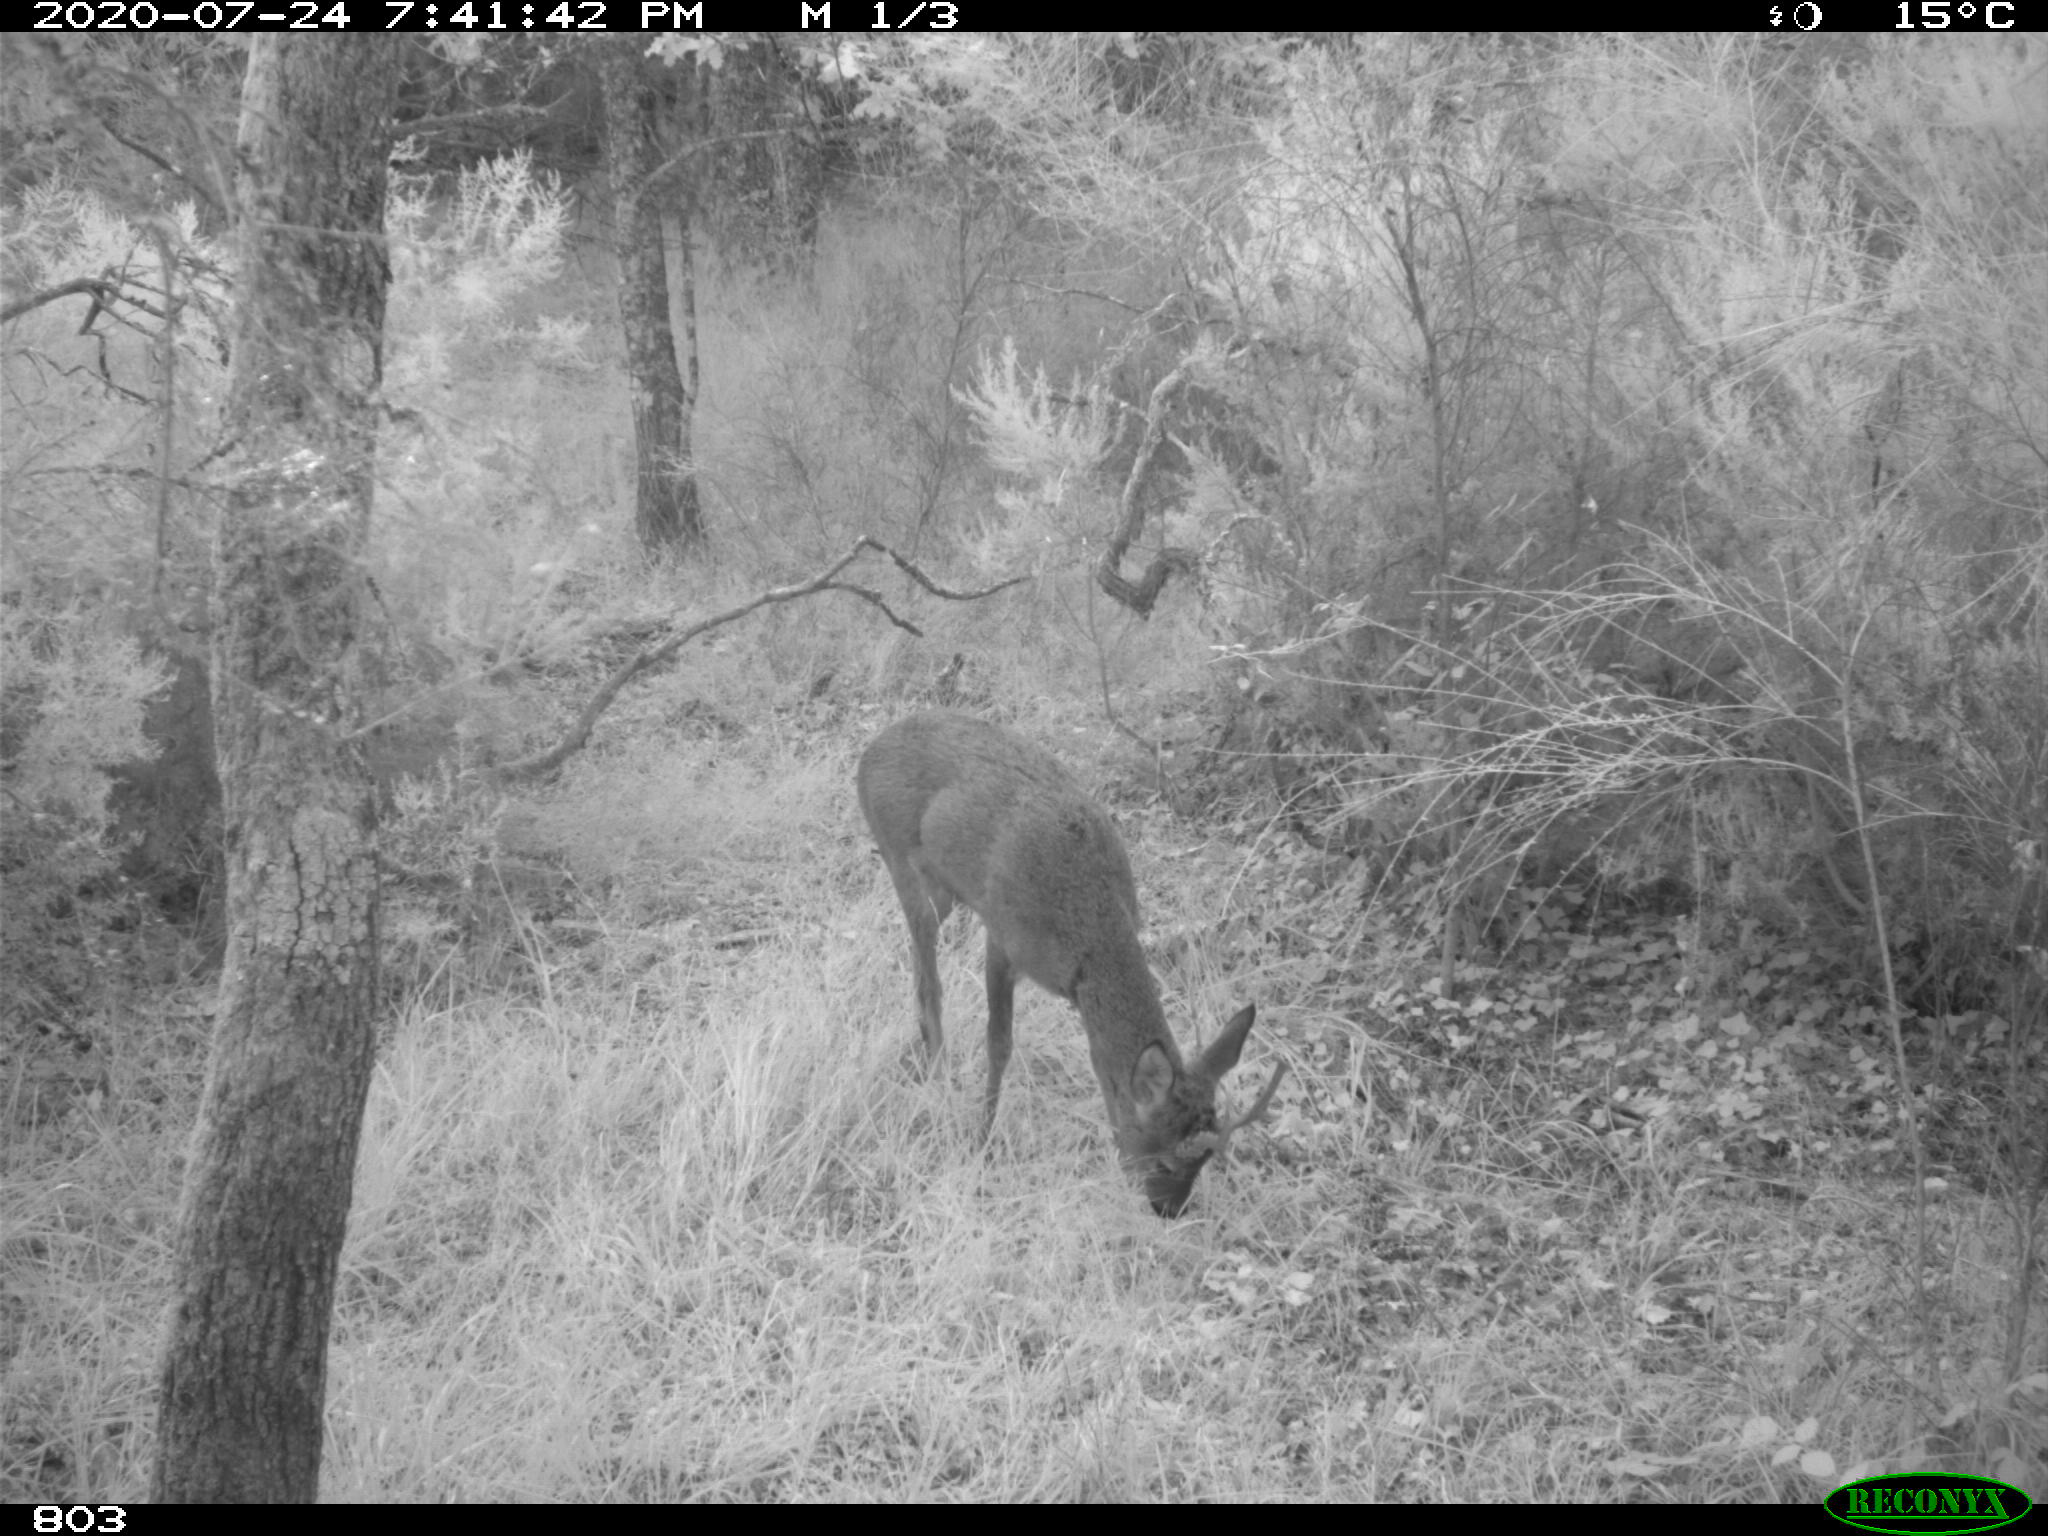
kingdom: Animalia
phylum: Chordata
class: Mammalia
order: Artiodactyla
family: Cervidae
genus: Capreolus
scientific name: Capreolus capreolus
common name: Western roe deer
